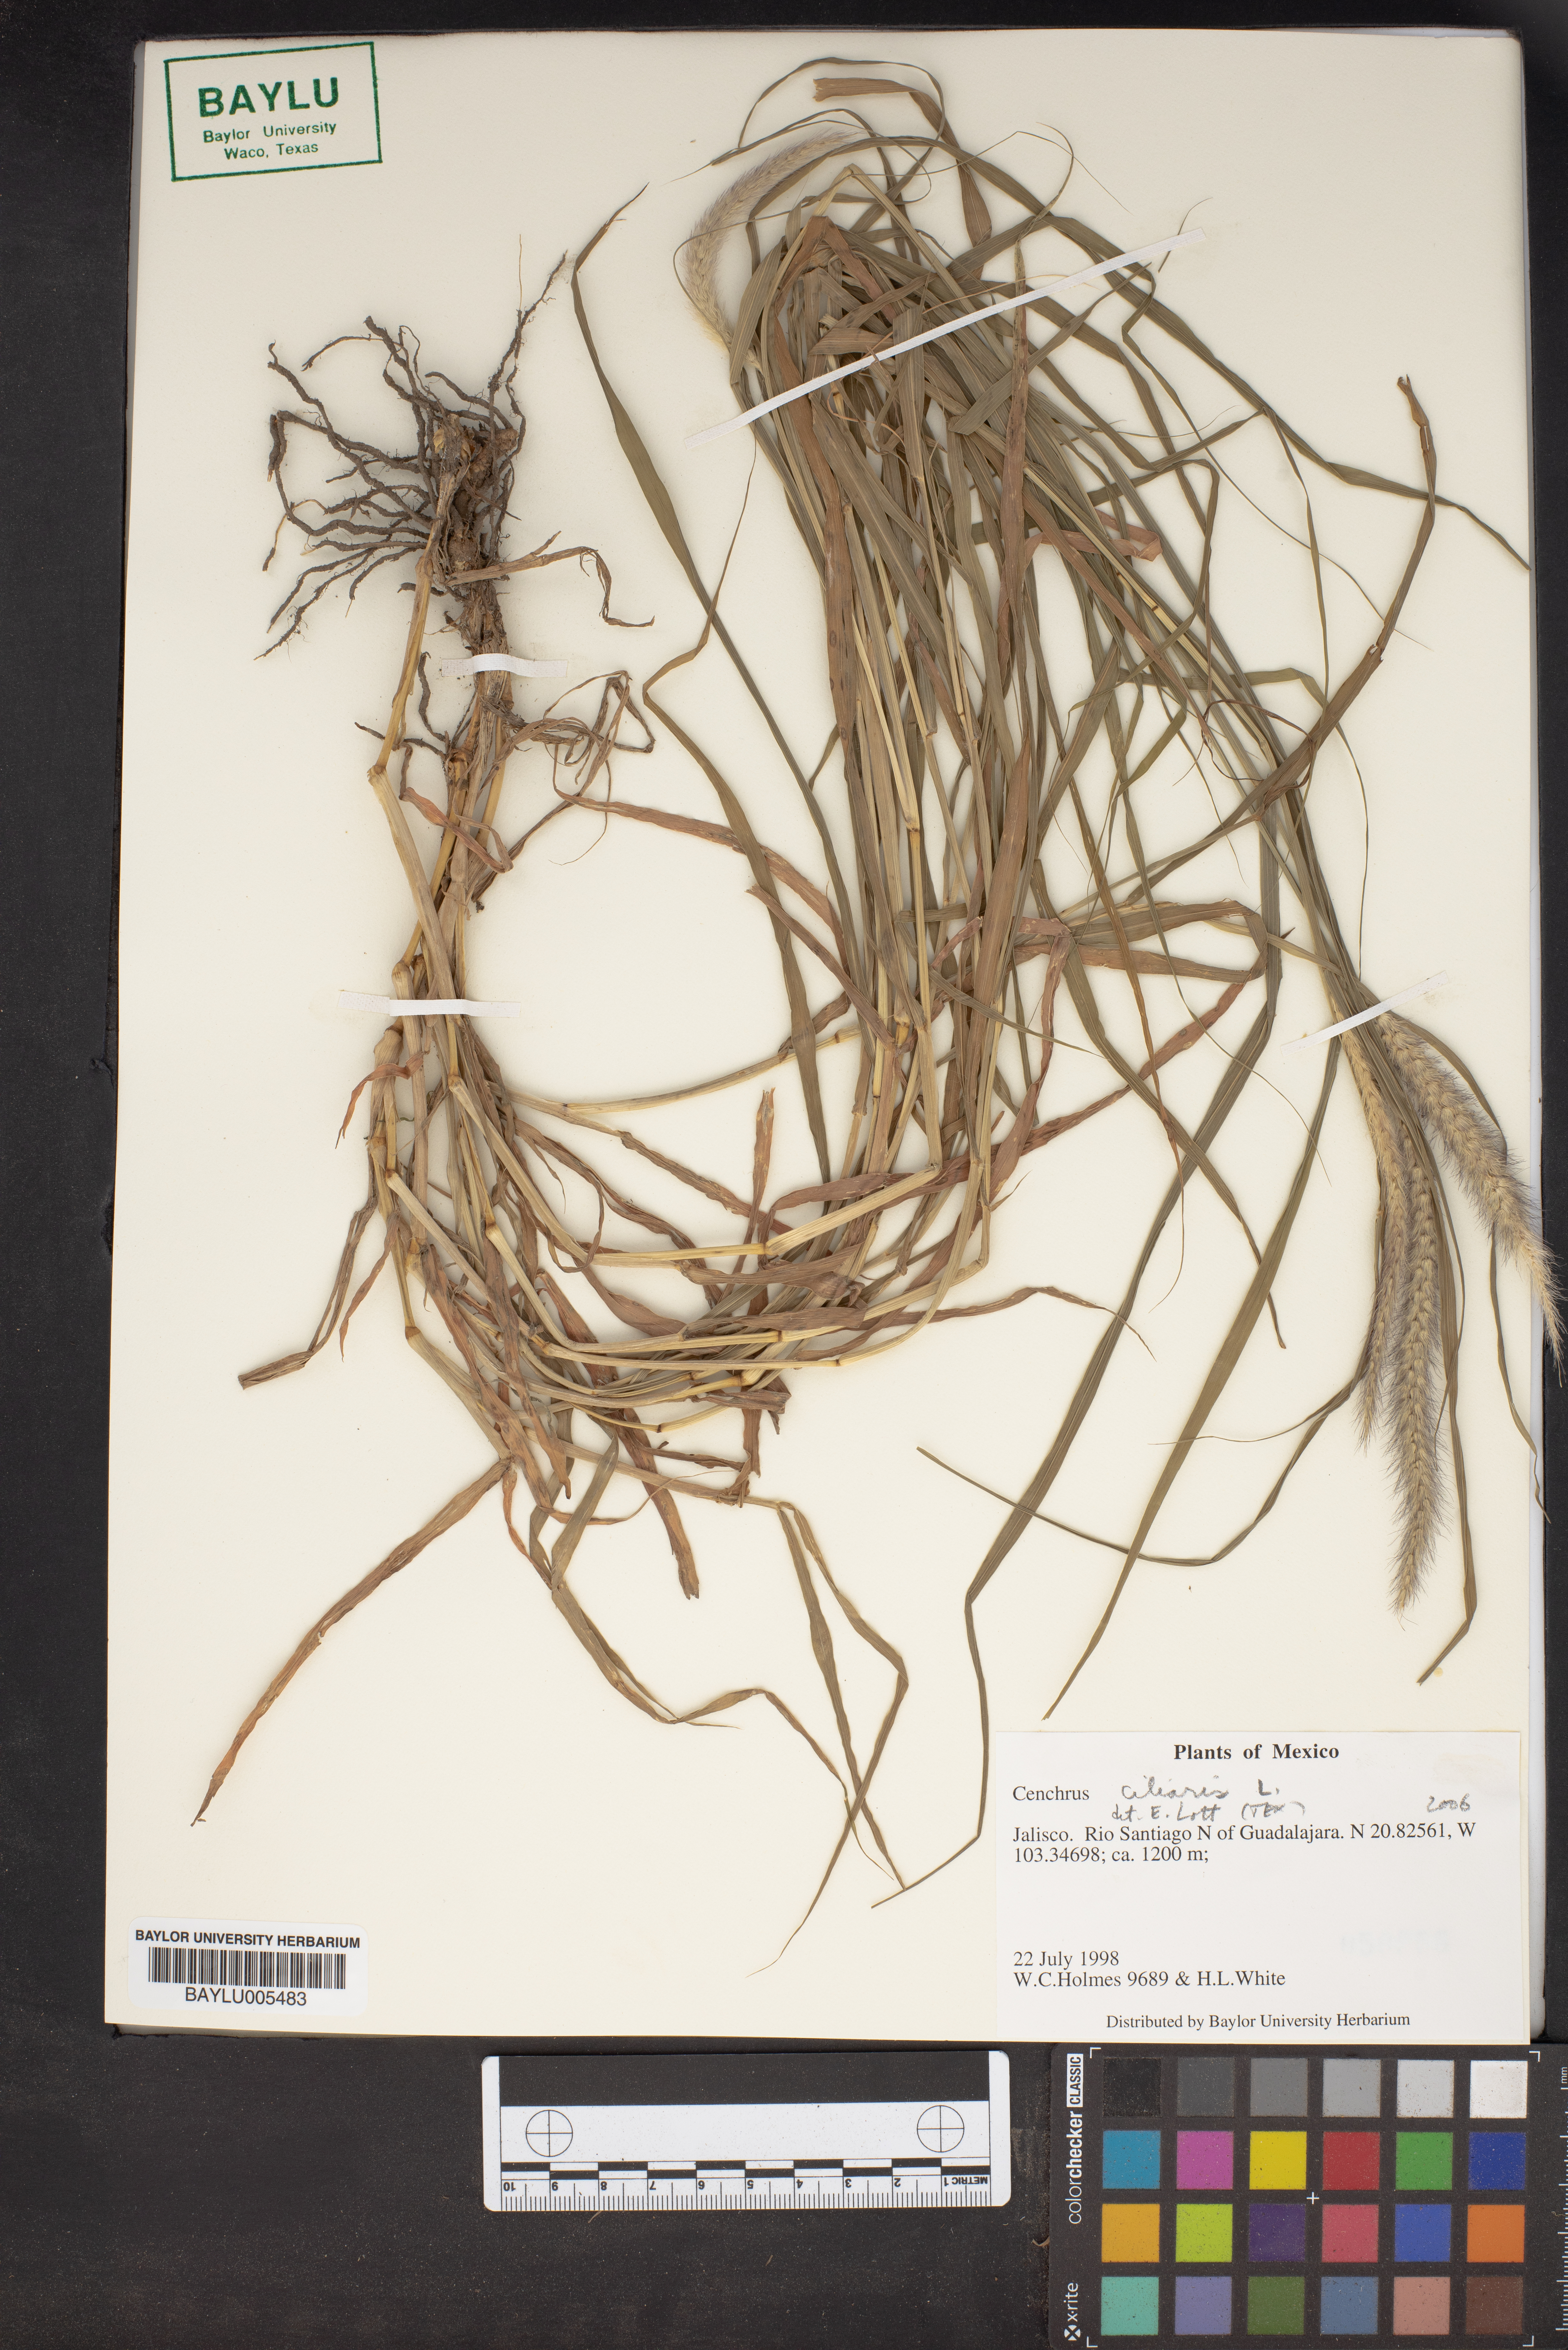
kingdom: Plantae
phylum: Tracheophyta
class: Liliopsida
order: Poales
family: Poaceae
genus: Cenchrus
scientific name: Cenchrus ciliaris
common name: Buffelgrass
